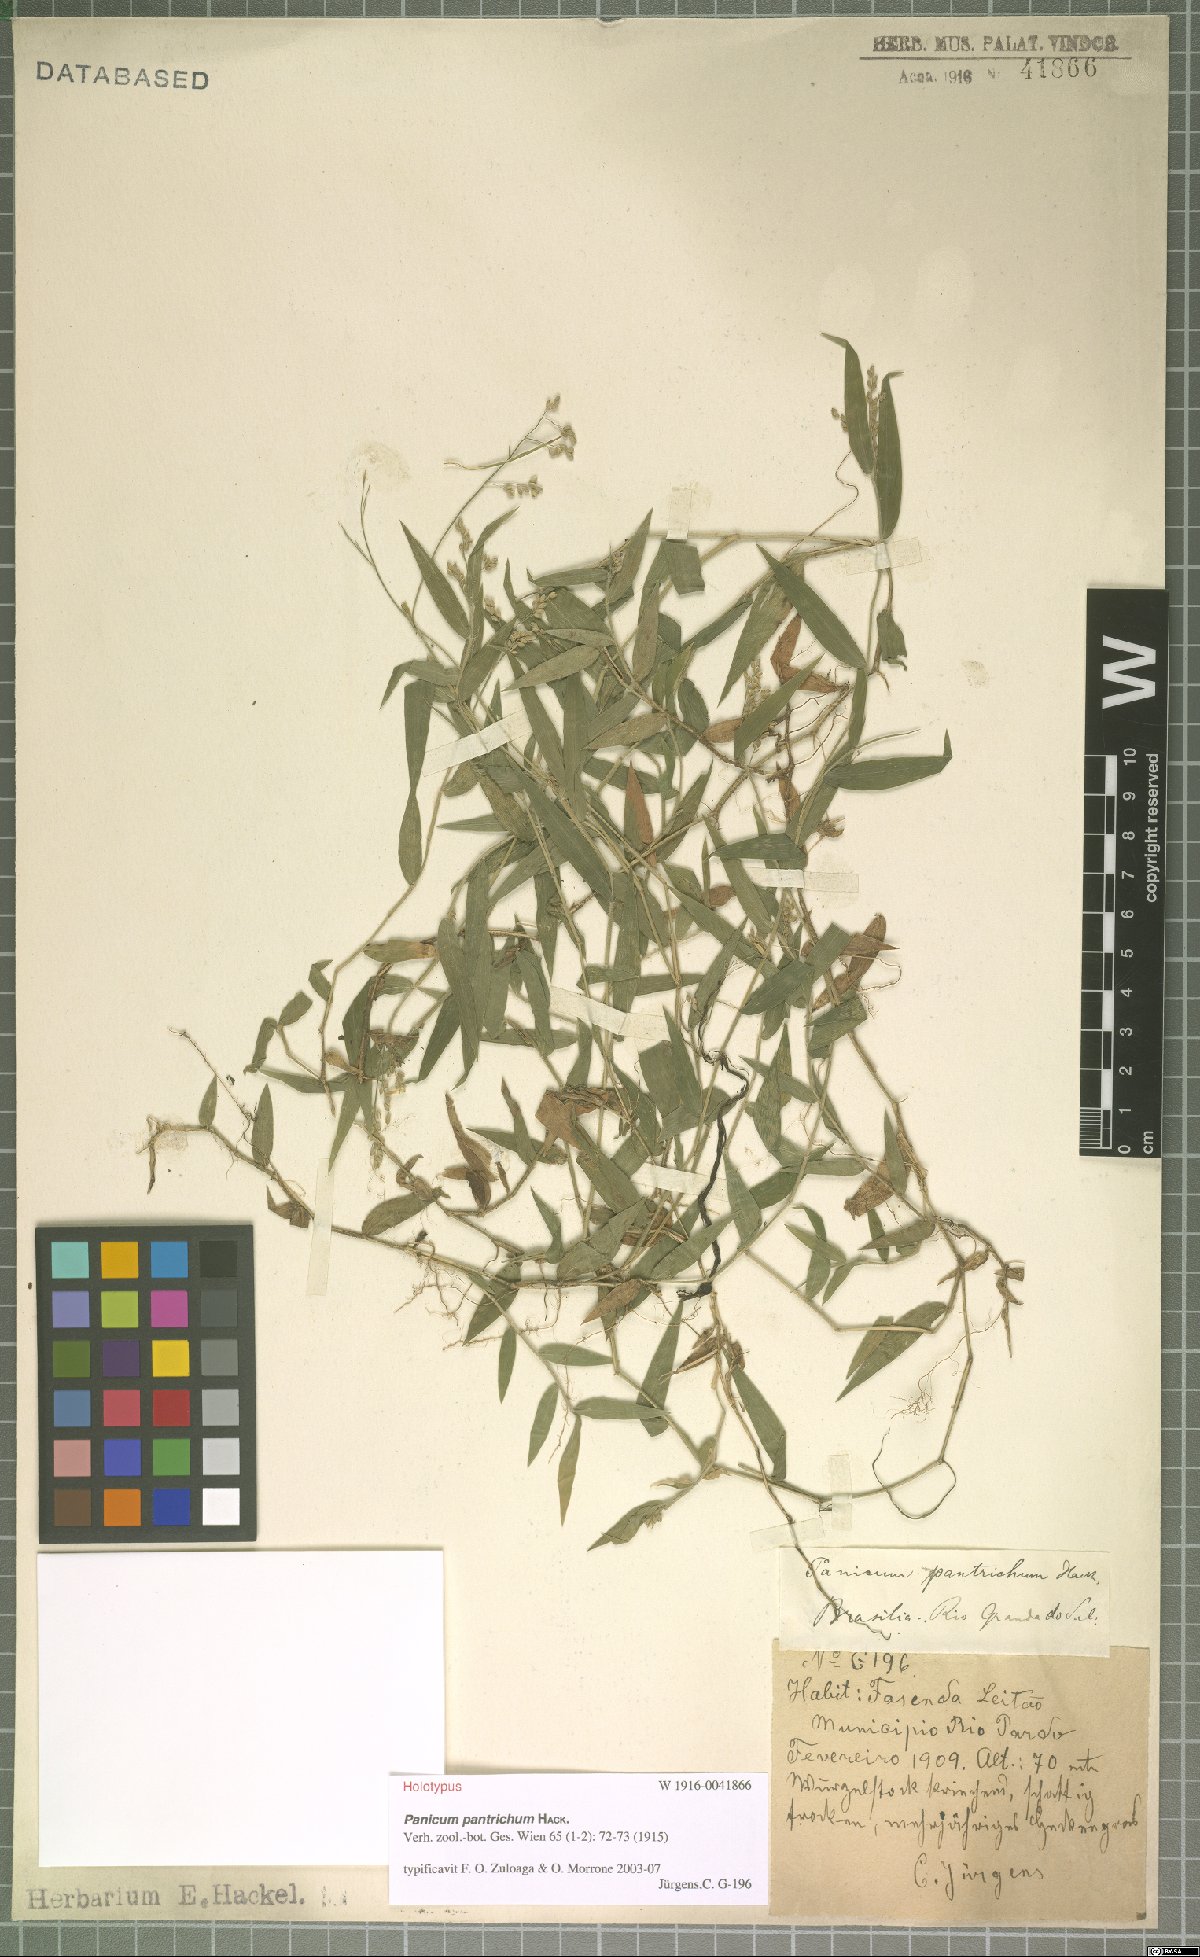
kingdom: Plantae
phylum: Tracheophyta
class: Liliopsida
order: Poales
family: Poaceae
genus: Parodiophyllochloa
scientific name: Parodiophyllochloa pantricha
